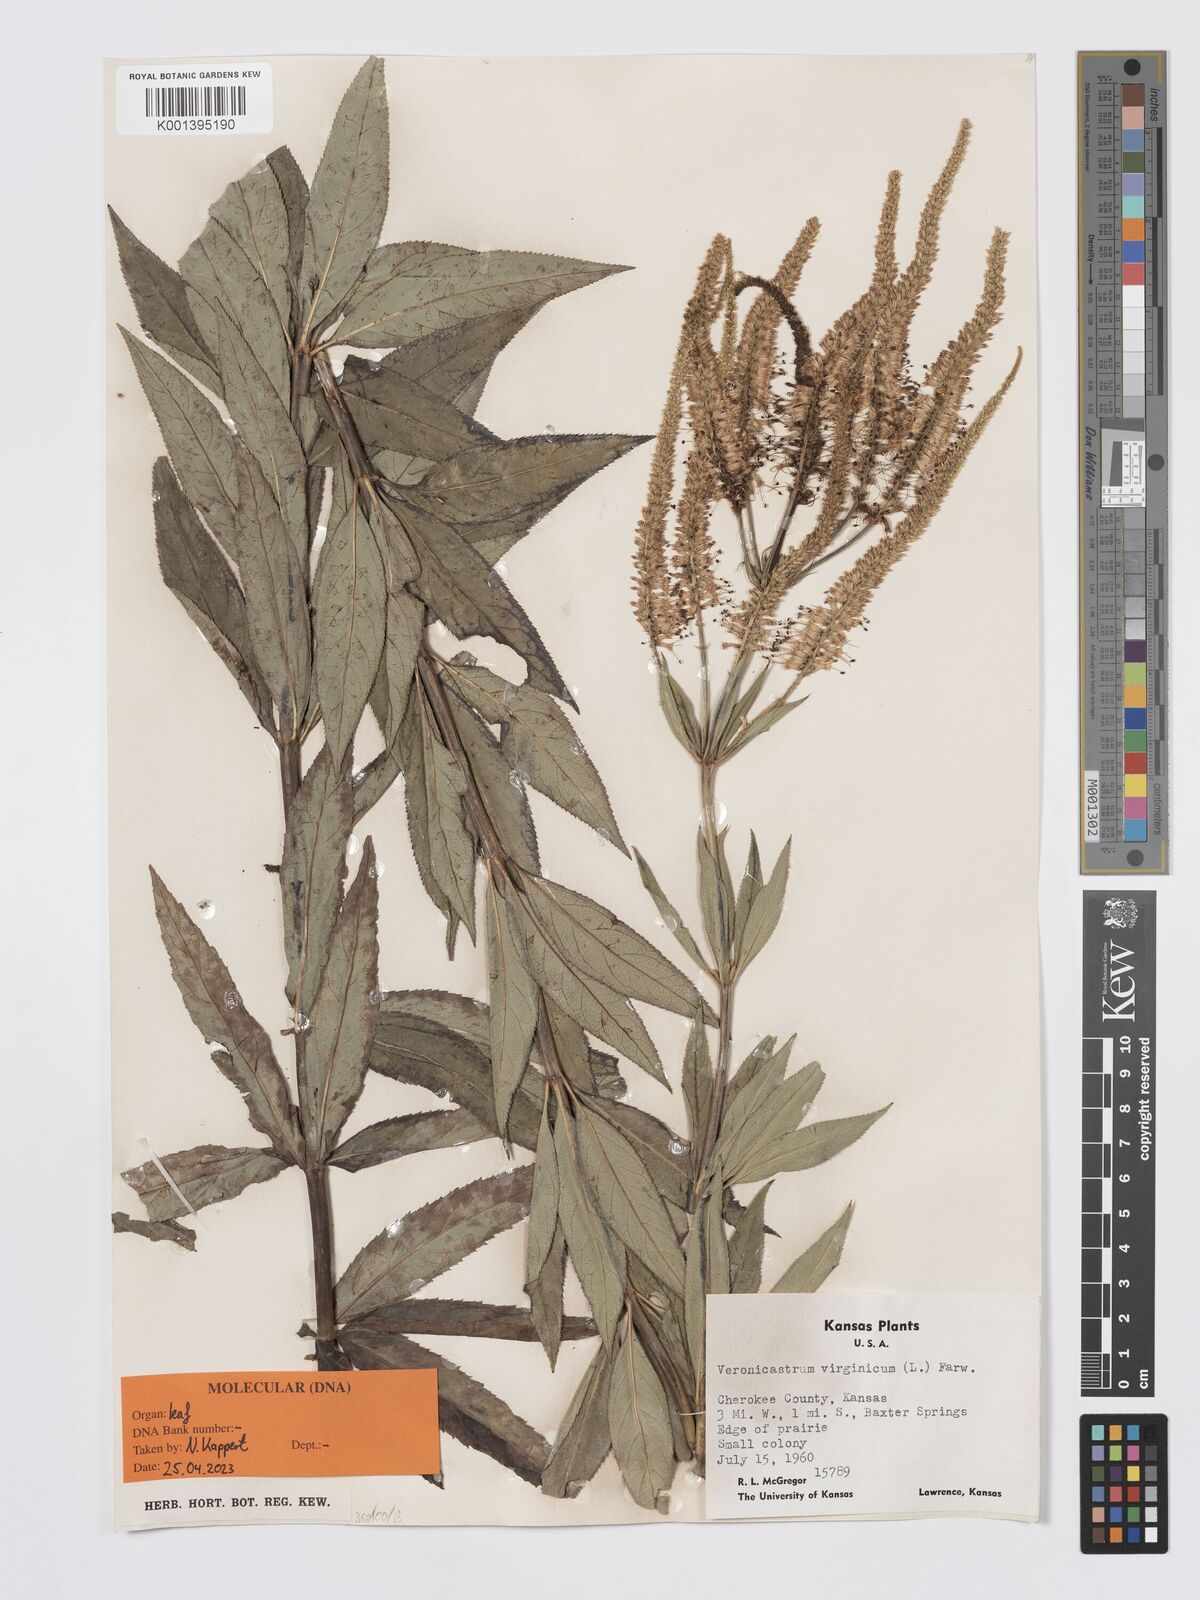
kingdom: Plantae
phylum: Tracheophyta
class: Magnoliopsida
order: Lamiales
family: Plantaginaceae
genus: Veronicastrum
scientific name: Veronicastrum virginicum
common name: Blackroot
